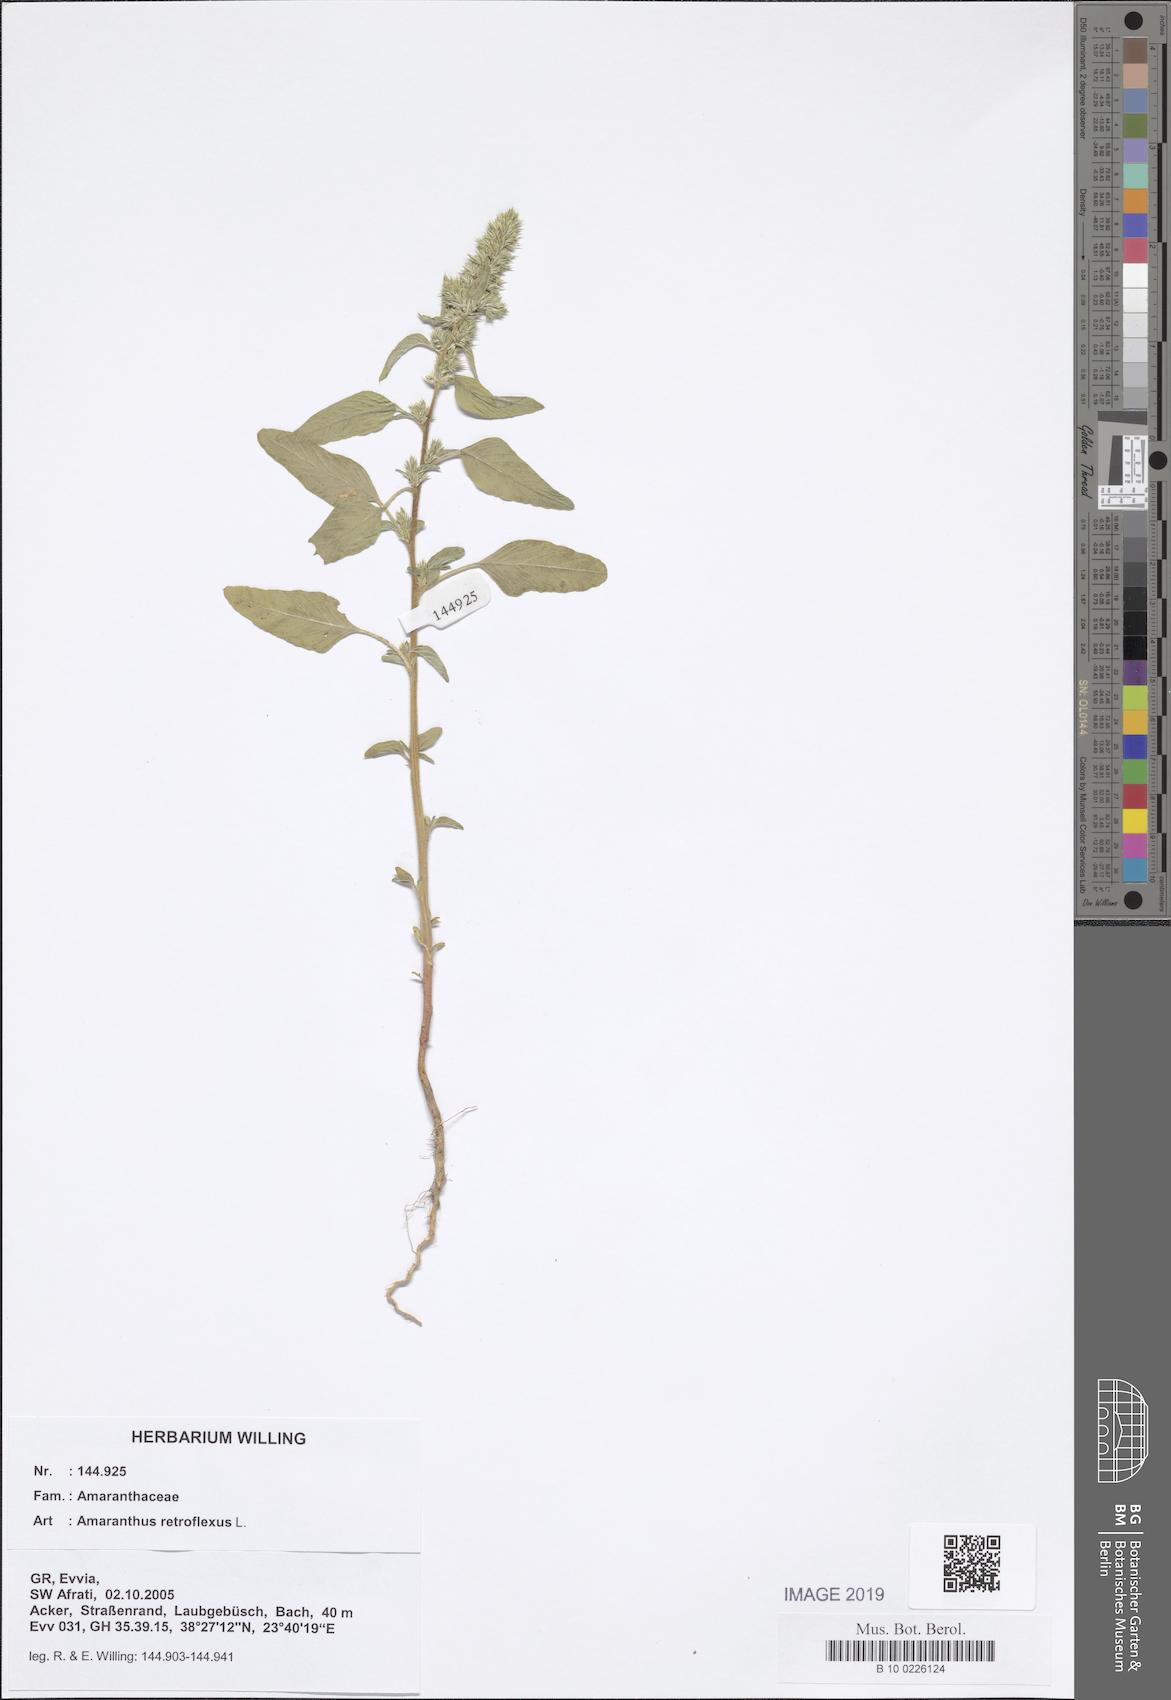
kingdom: Plantae
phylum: Tracheophyta
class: Magnoliopsida
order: Caryophyllales
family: Amaranthaceae
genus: Amaranthus
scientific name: Amaranthus retroflexus
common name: Redroot amaranth
